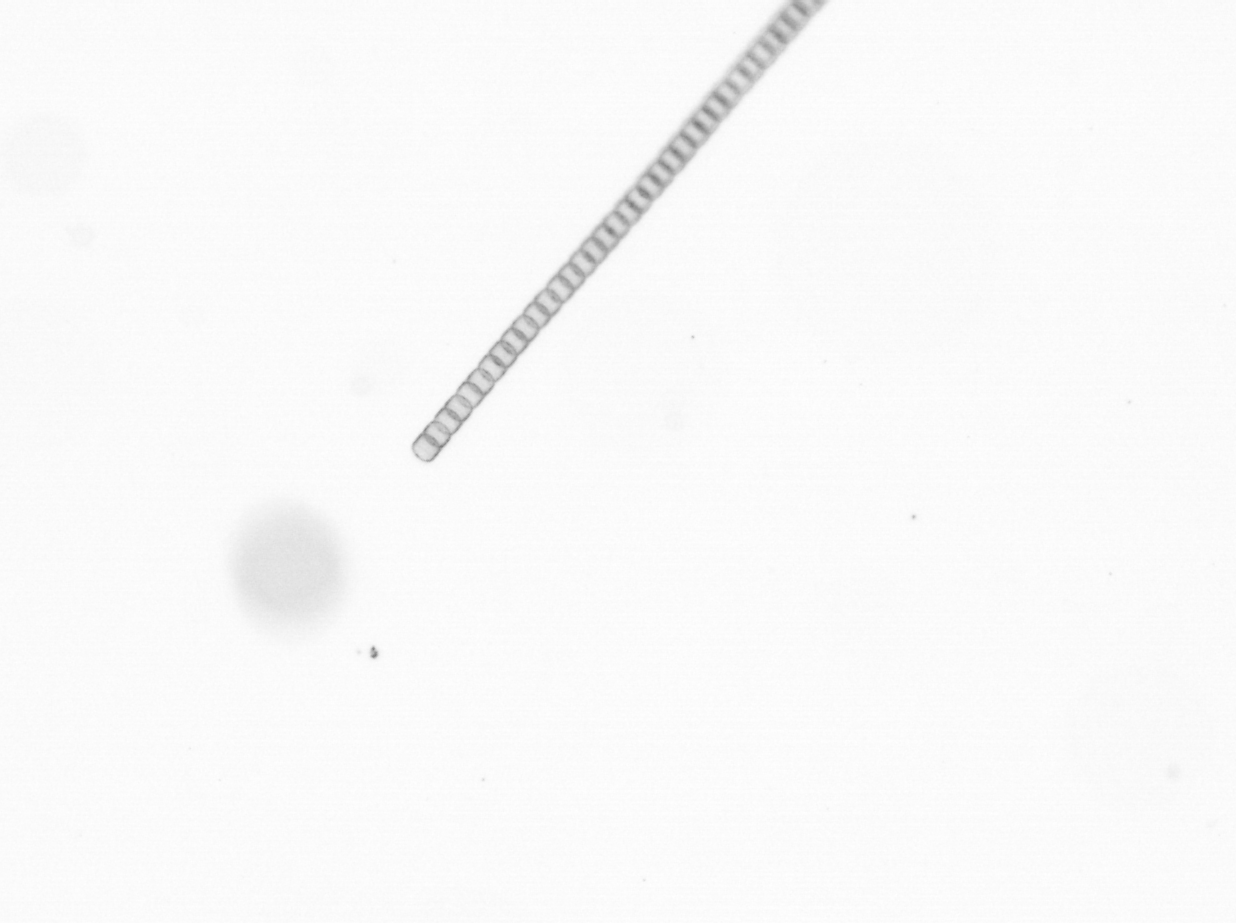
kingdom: Chromista
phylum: Ochrophyta
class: Bacillariophyceae
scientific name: Bacillariophyceae
